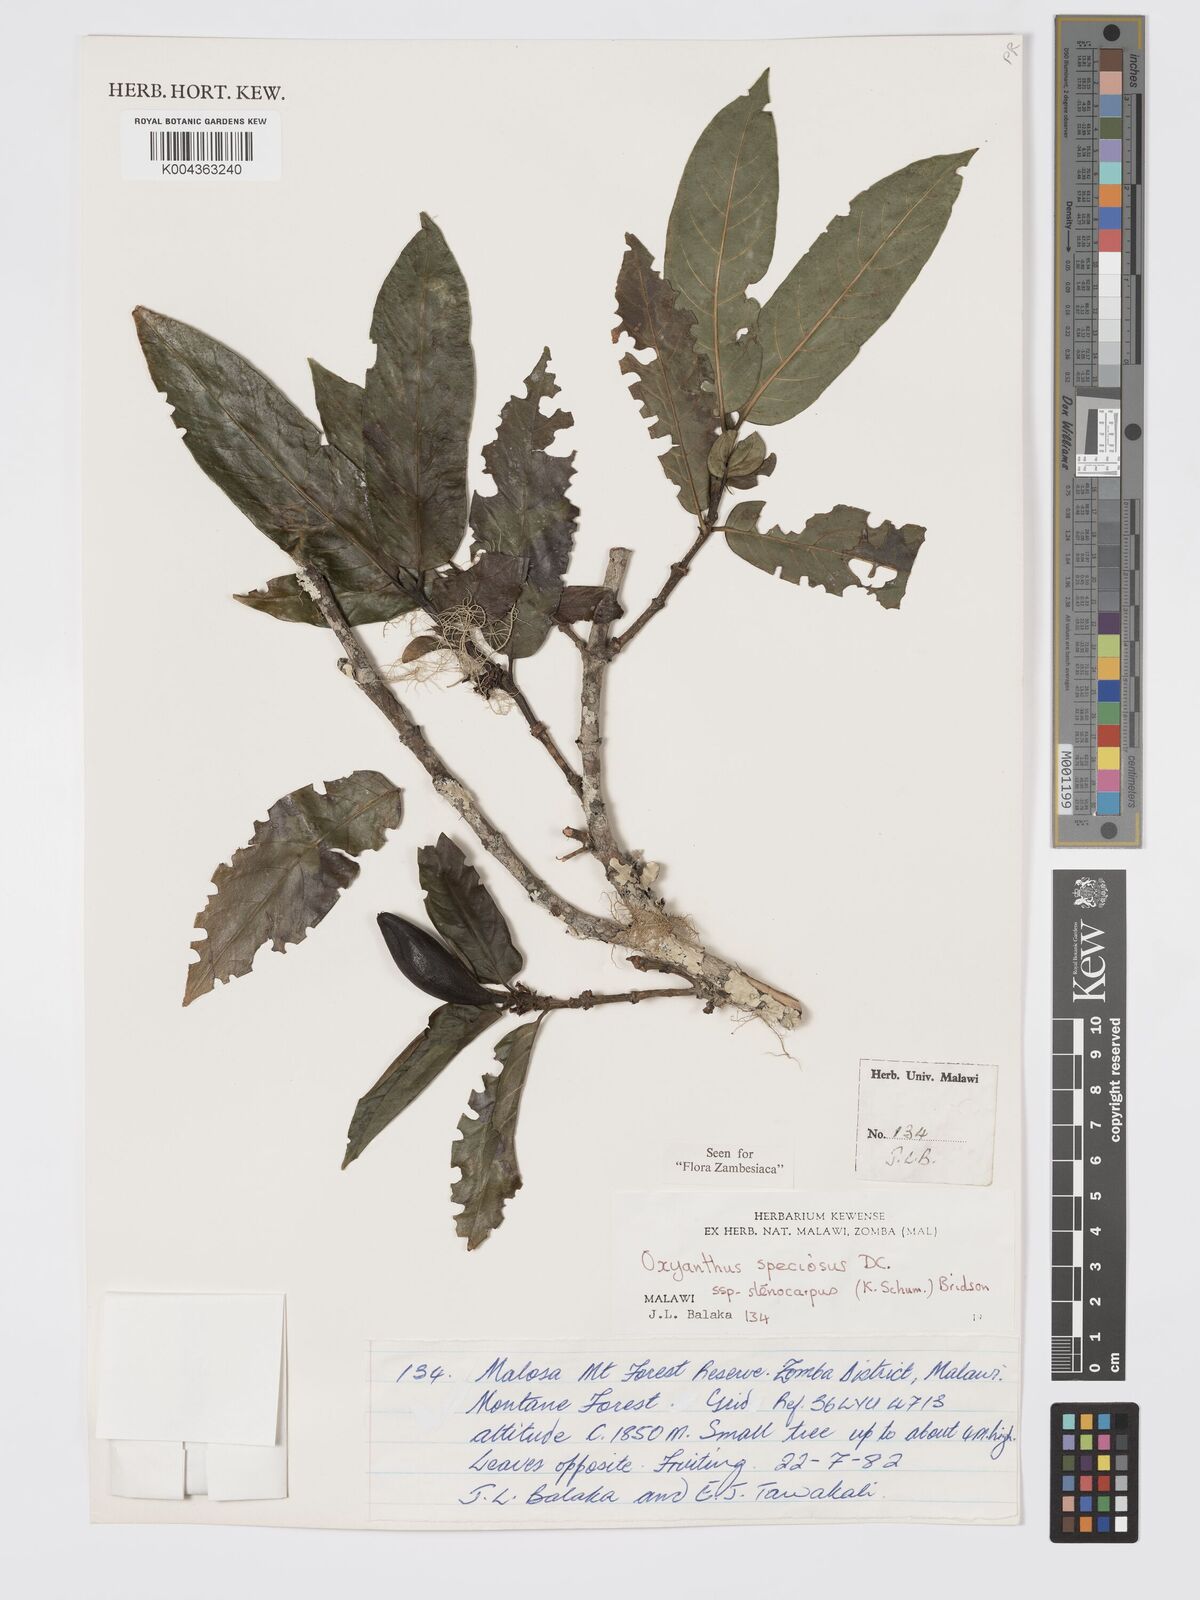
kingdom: Plantae
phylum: Tracheophyta
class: Magnoliopsida
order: Gentianales
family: Rubiaceae
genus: Oxyanthus
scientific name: Oxyanthus speciosus
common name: Whipstick loquat
